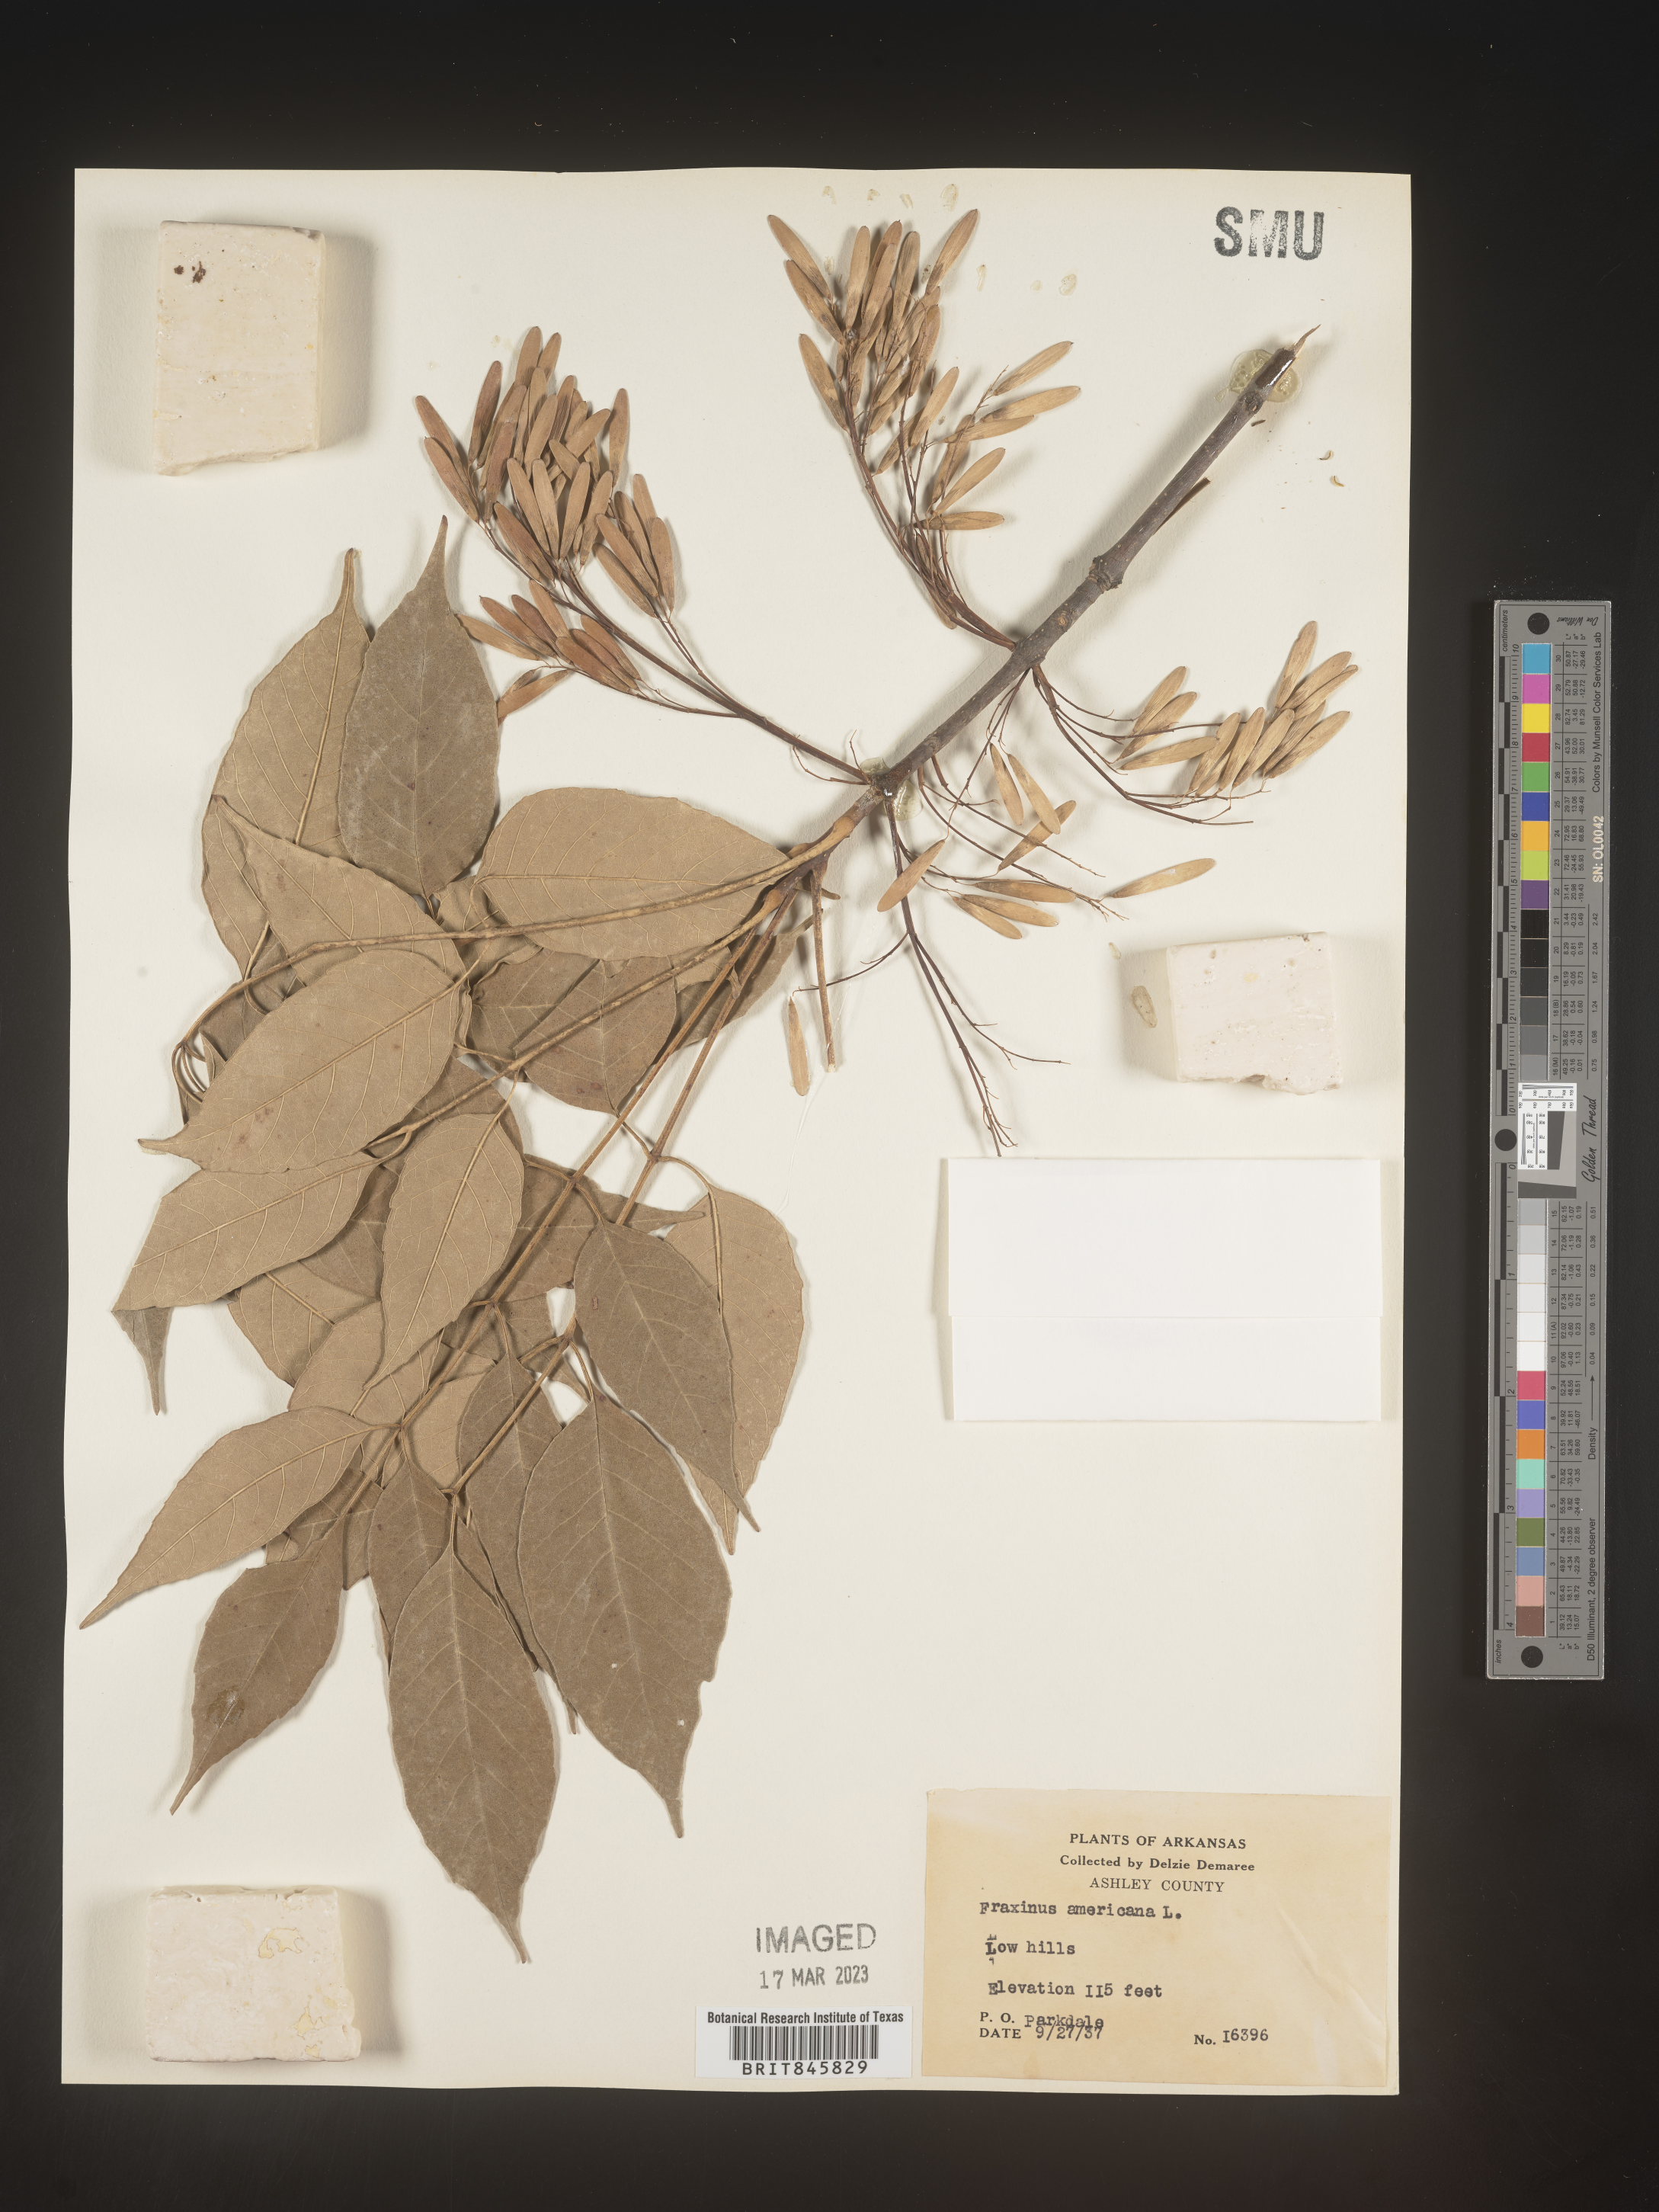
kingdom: Plantae
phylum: Tracheophyta
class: Magnoliopsida
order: Lamiales
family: Oleaceae
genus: Fraxinus
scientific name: Fraxinus americana
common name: White ash
